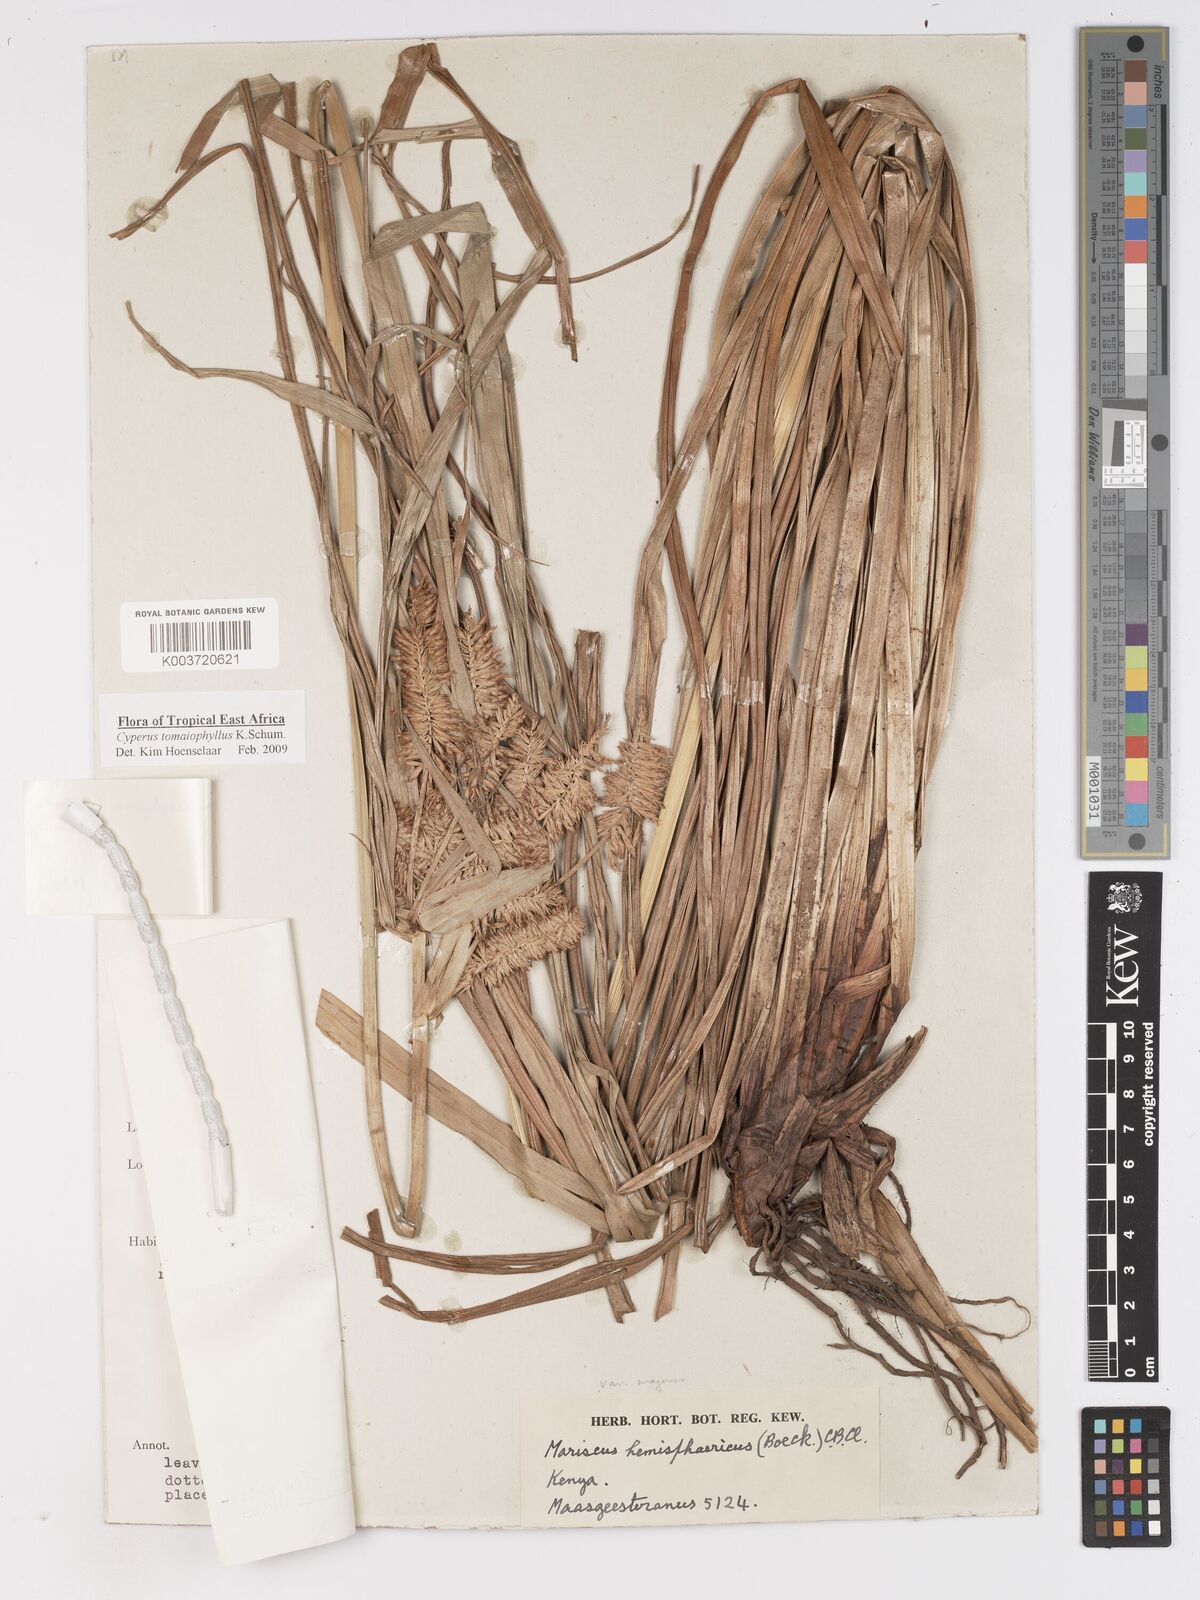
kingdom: Plantae
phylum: Tracheophyta
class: Liliopsida
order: Poales
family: Cyperaceae
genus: Cyperus
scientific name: Cyperus tomaiophyllus
